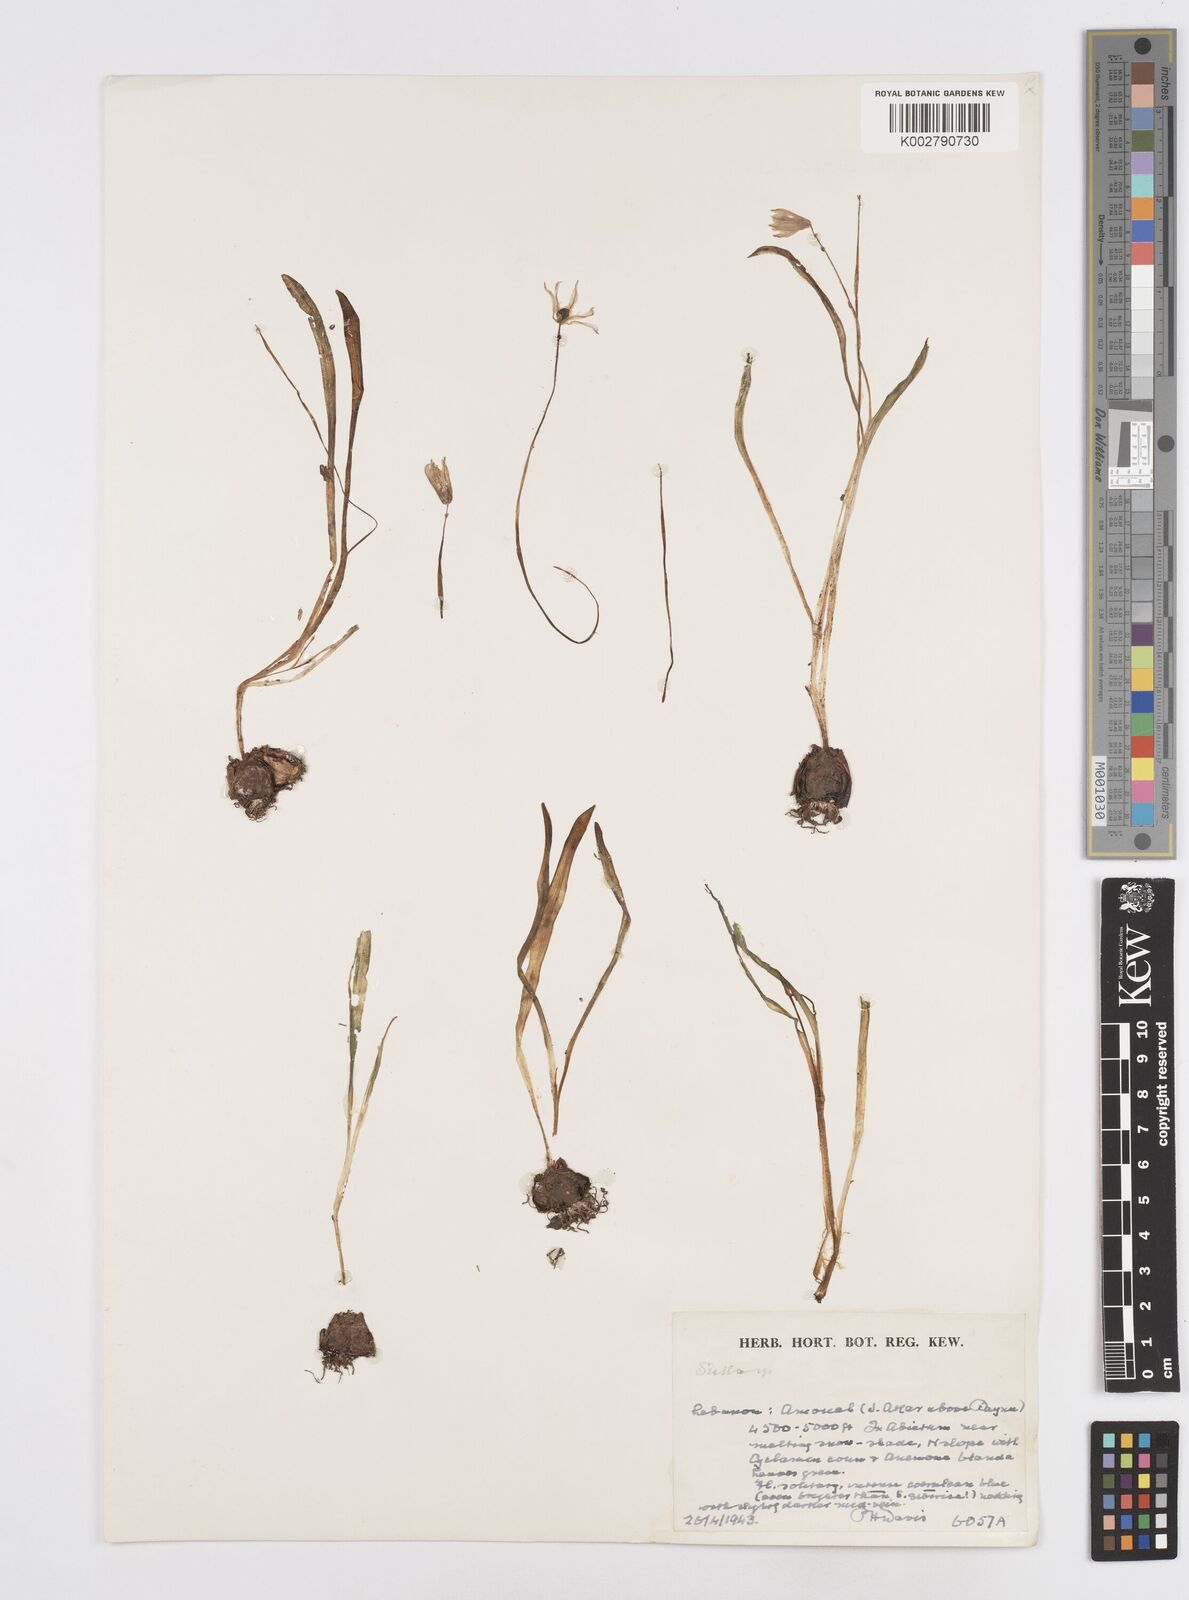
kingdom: Plantae
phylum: Tracheophyta
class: Liliopsida
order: Asparagales
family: Asparagaceae
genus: Scilla
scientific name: Scilla siberica
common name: Siberian squill
